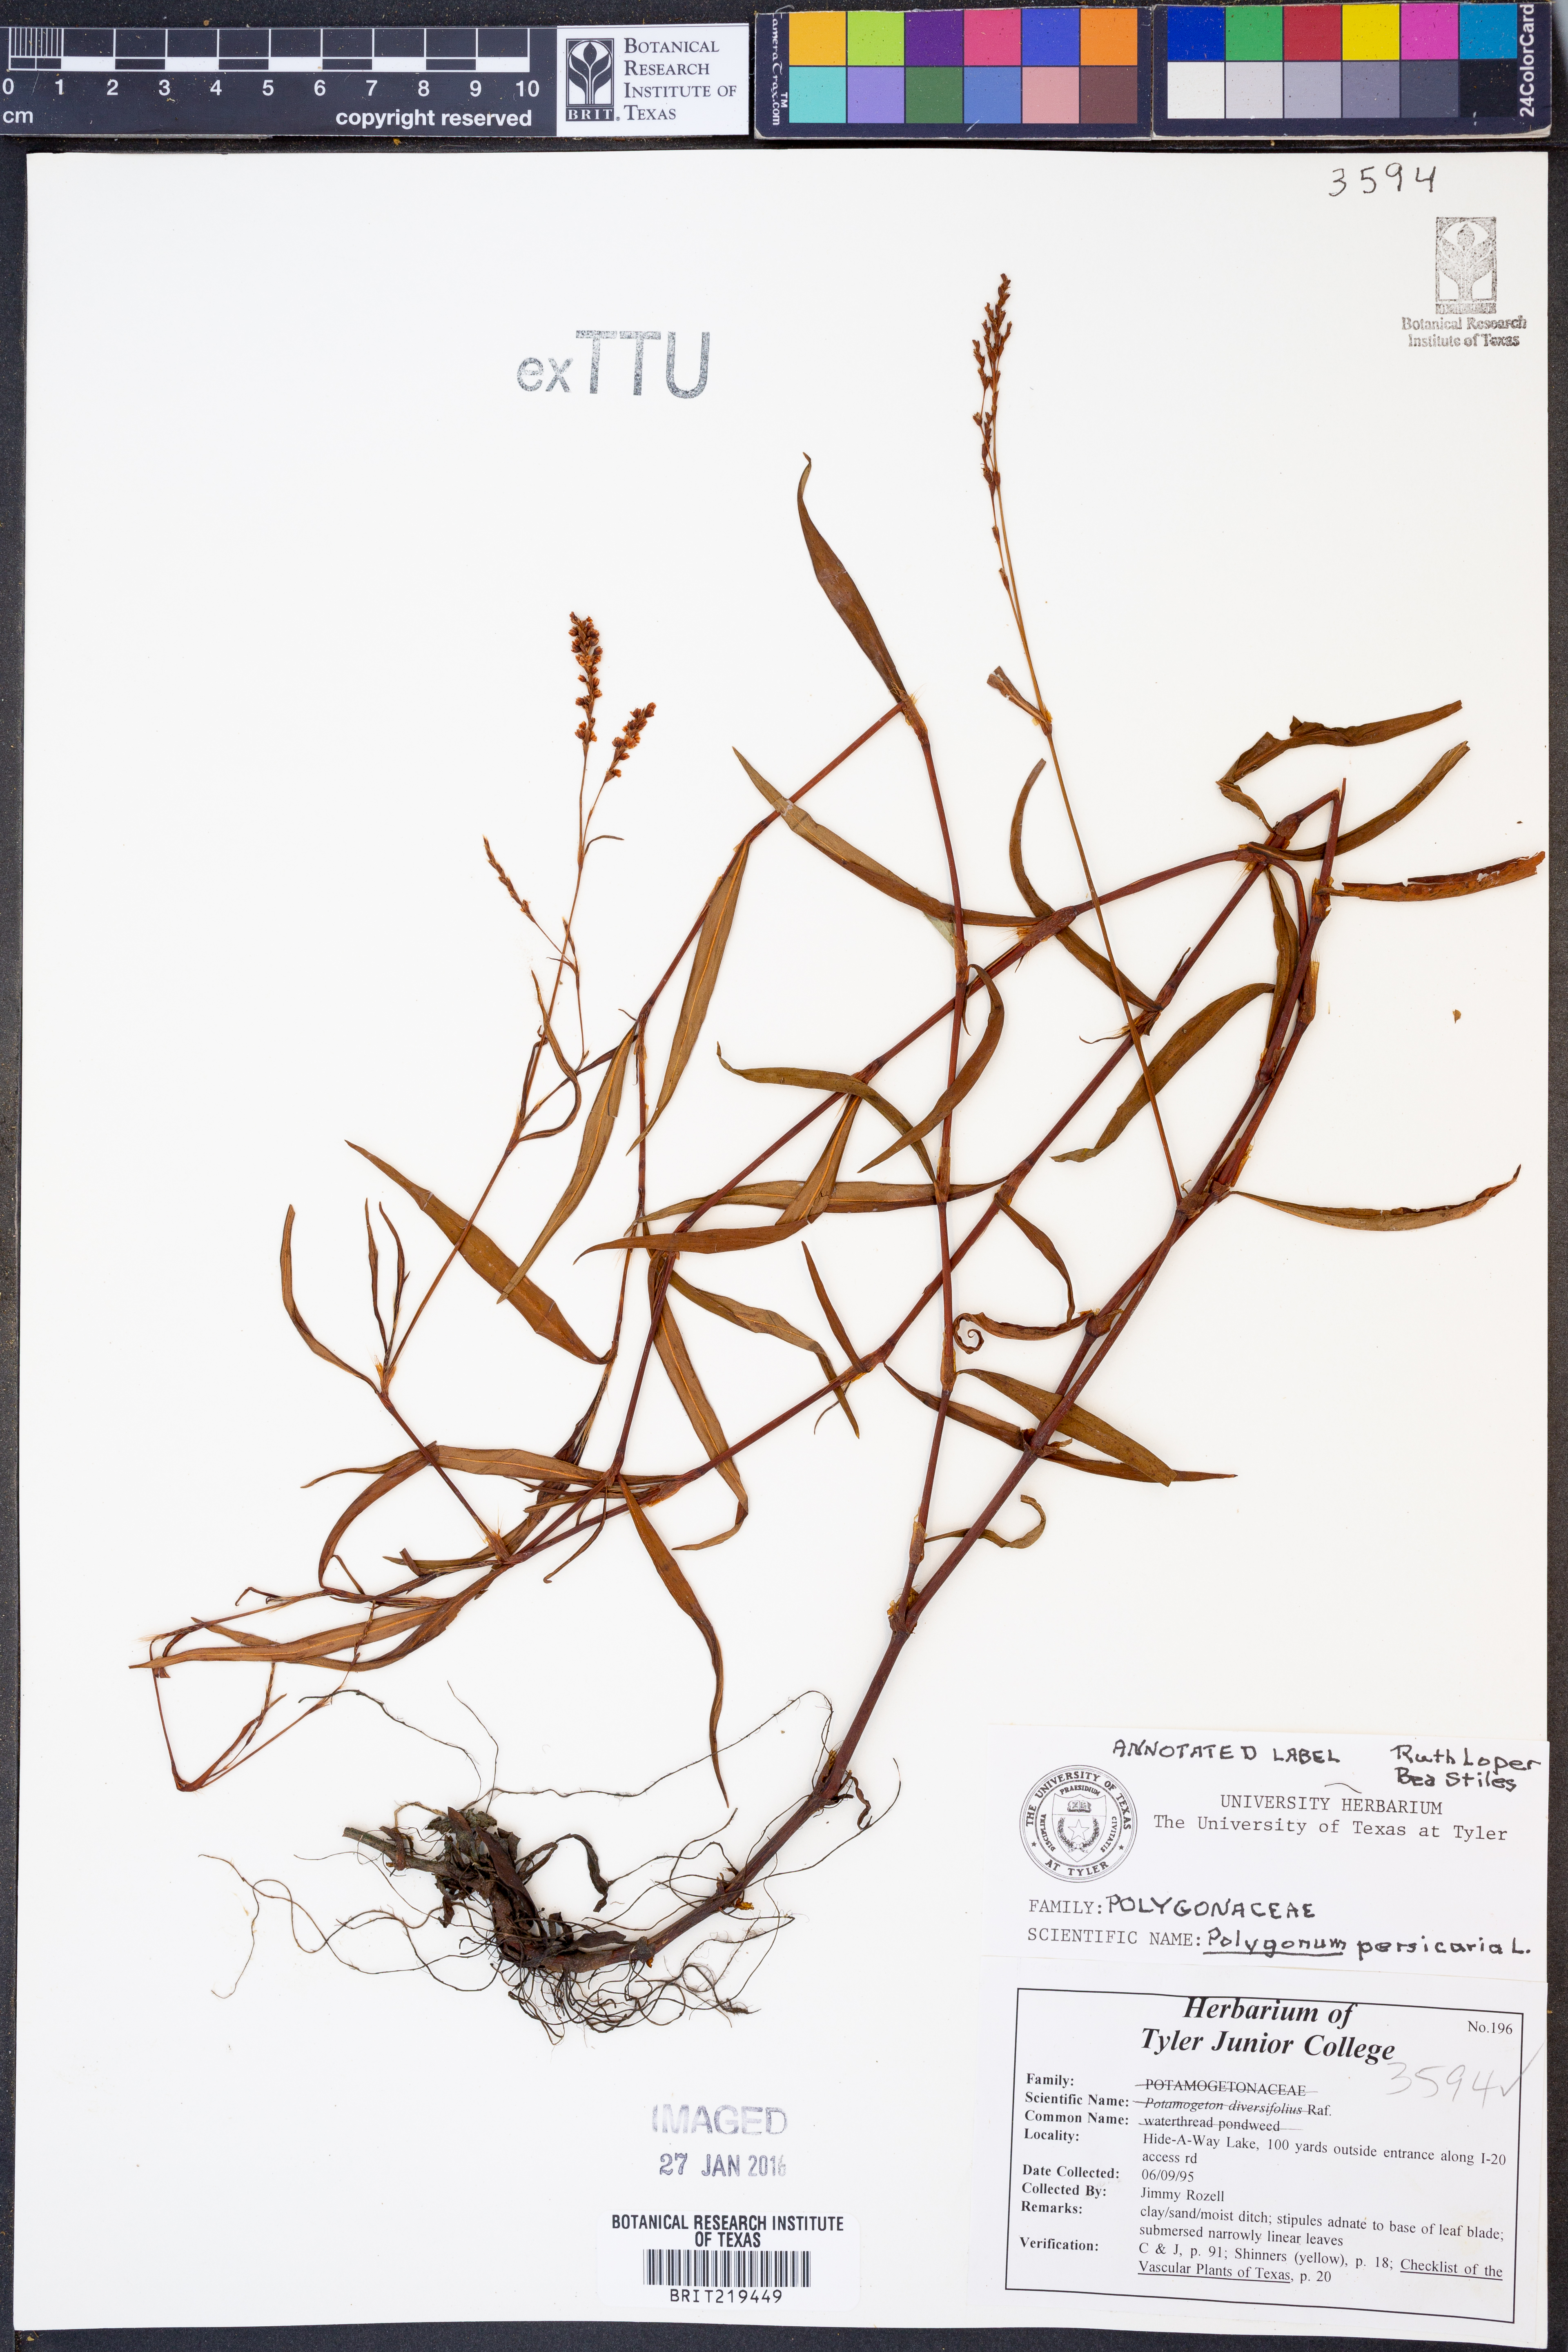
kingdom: Plantae
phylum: Tracheophyta
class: Magnoliopsida
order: Caryophyllales
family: Polygonaceae
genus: Persicaria
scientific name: Persicaria maculosa
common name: Redshank
